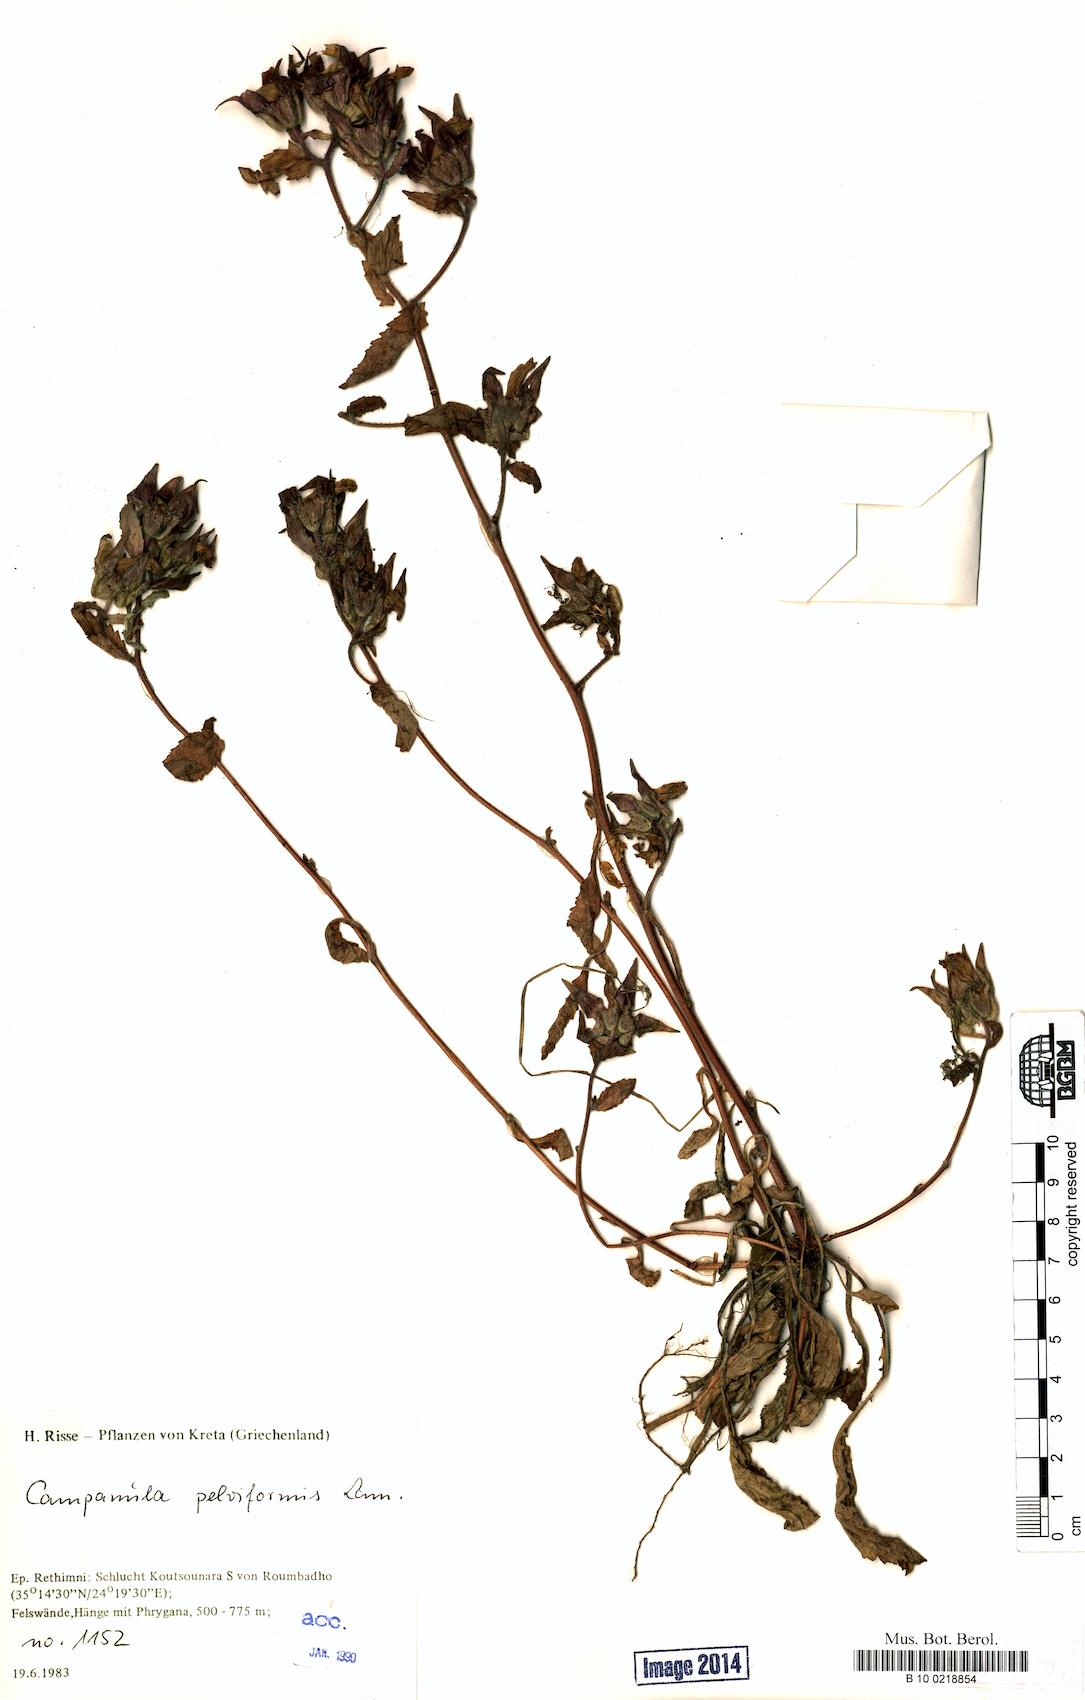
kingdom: Plantae
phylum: Tracheophyta
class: Magnoliopsida
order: Asterales
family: Campanulaceae
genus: Campanula
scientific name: Campanula pelviformis
